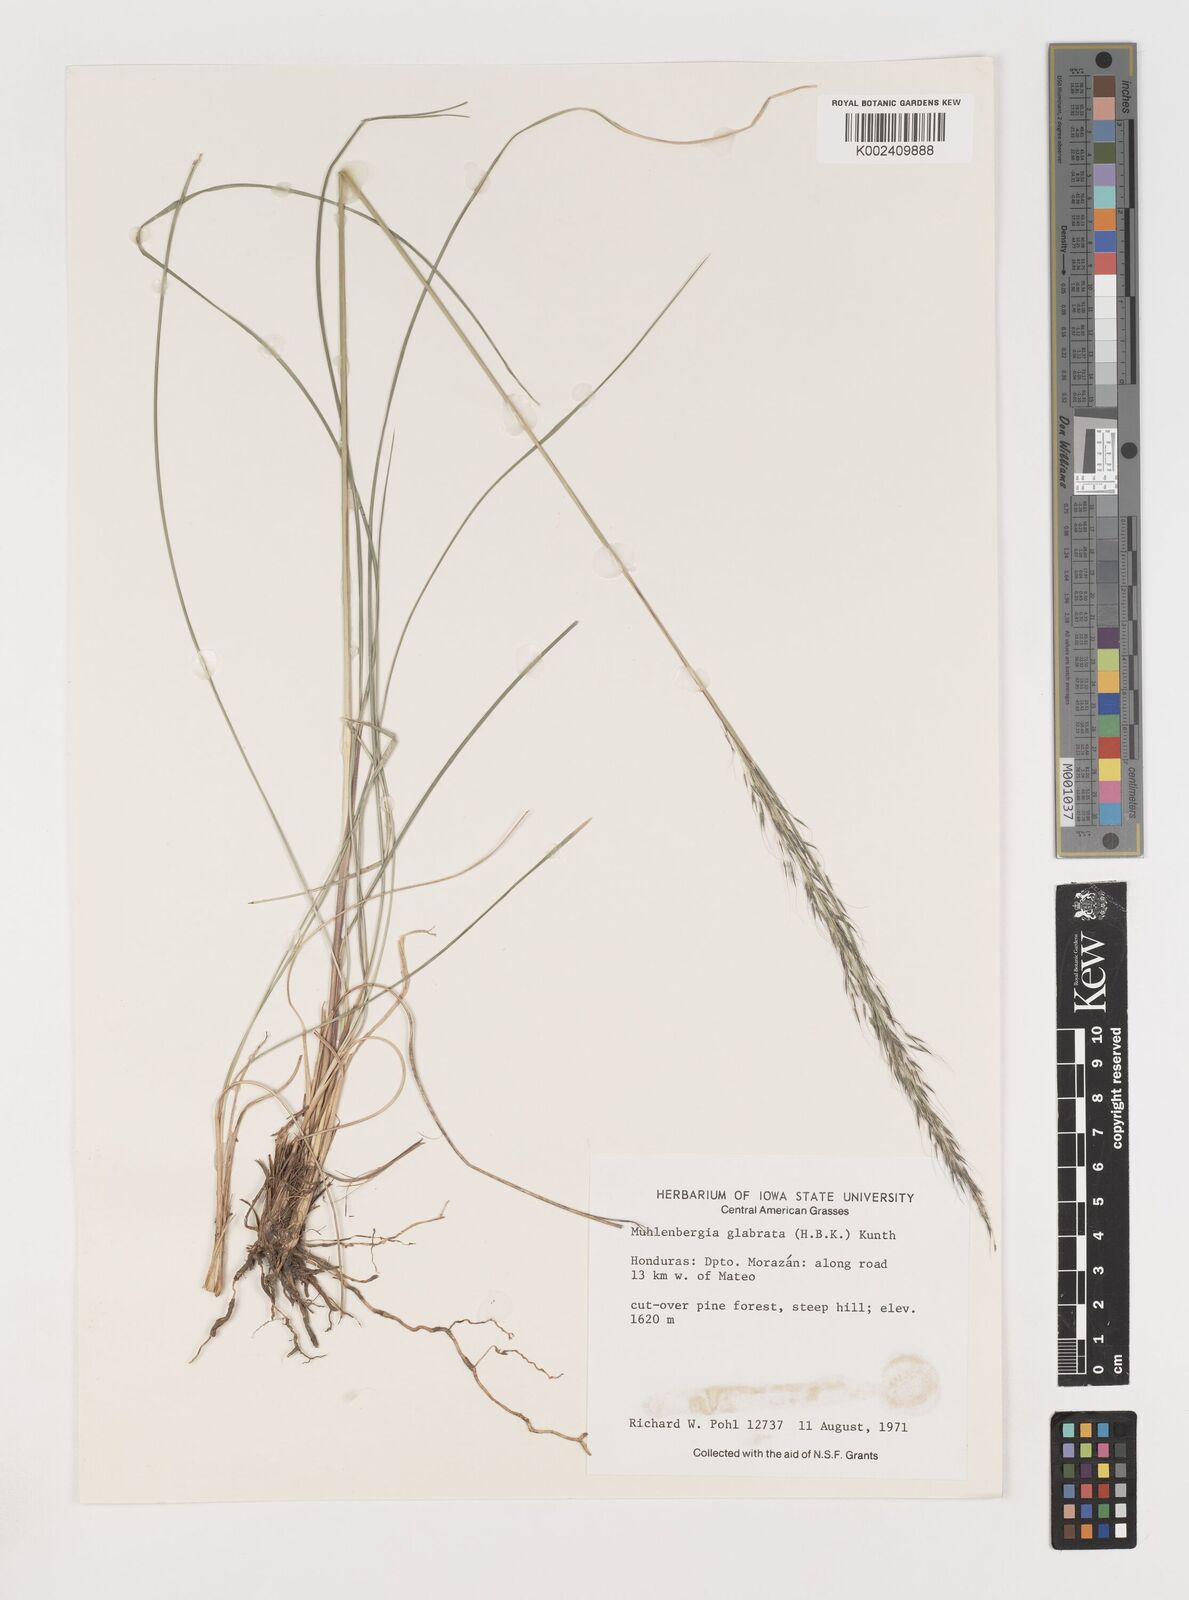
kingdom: Plantae
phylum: Tracheophyta
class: Liliopsida
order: Poales
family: Poaceae
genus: Muhlenbergia
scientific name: Muhlenbergia rigida
